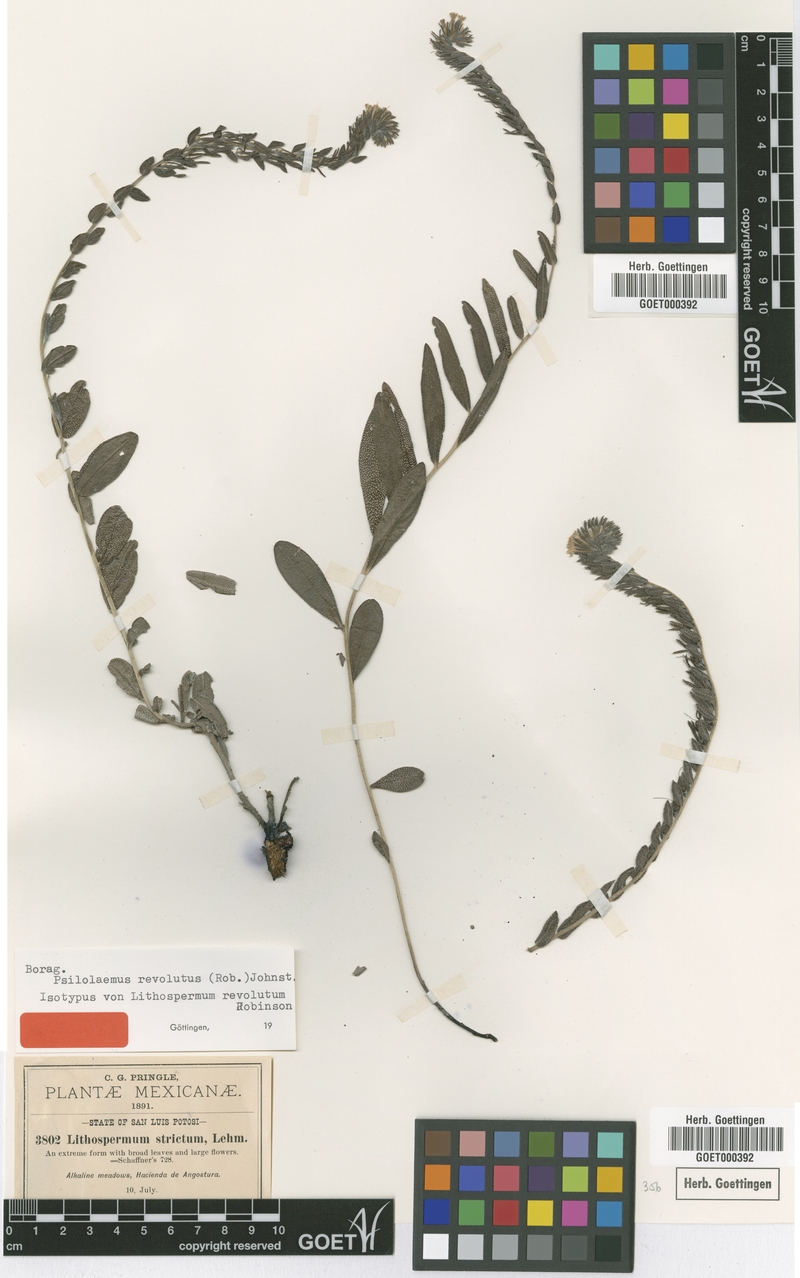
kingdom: Plantae
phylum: Tracheophyta
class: Magnoliopsida
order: Boraginales
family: Boraginaceae
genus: Lithospermum
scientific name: Lithospermum revolutum
